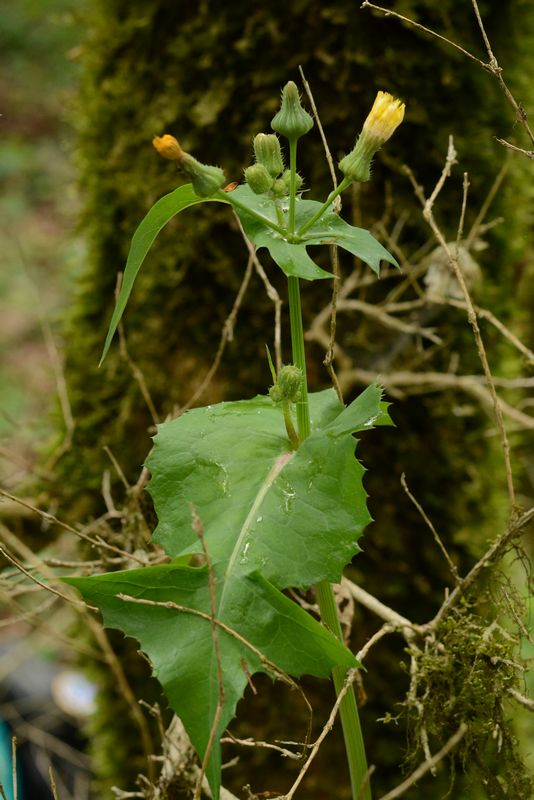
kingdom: Plantae
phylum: Tracheophyta
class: Magnoliopsida
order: Asterales
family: Asteraceae
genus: Sonchus
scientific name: Sonchus oleraceus
